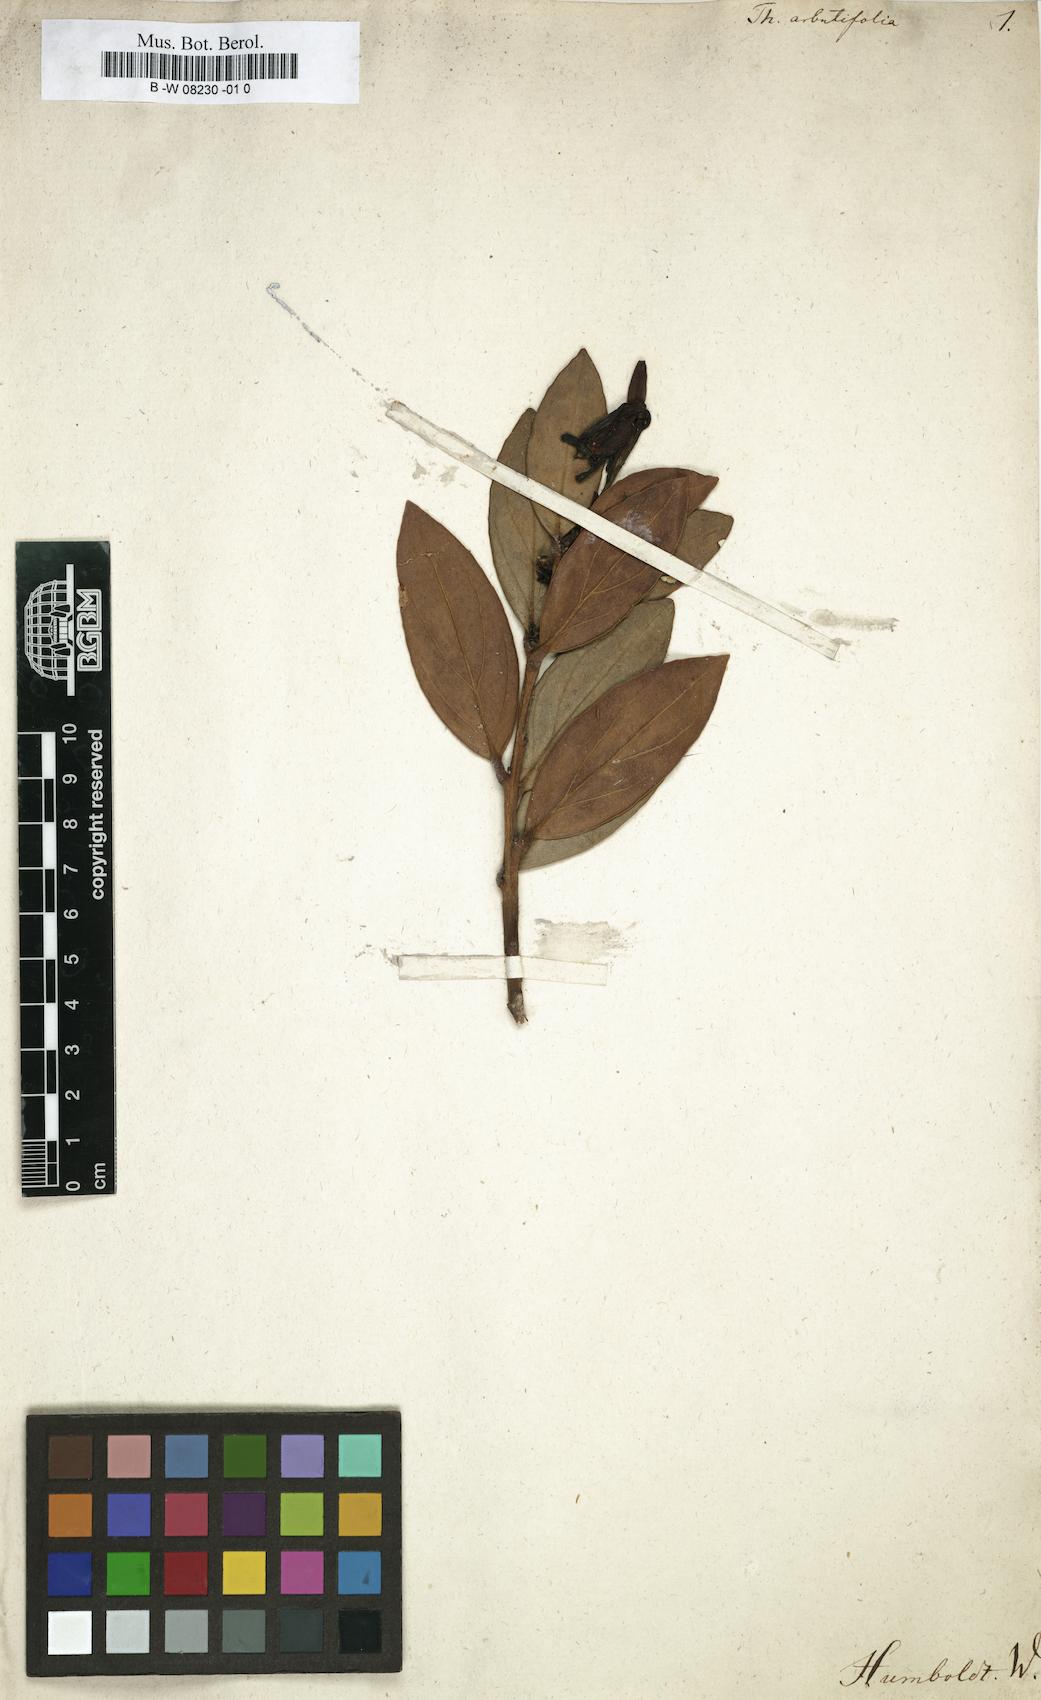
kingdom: Plantae
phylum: Tracheophyta
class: Magnoliopsida
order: Ericales
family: Ericaceae
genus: Thibaudia
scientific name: Thibaudia
